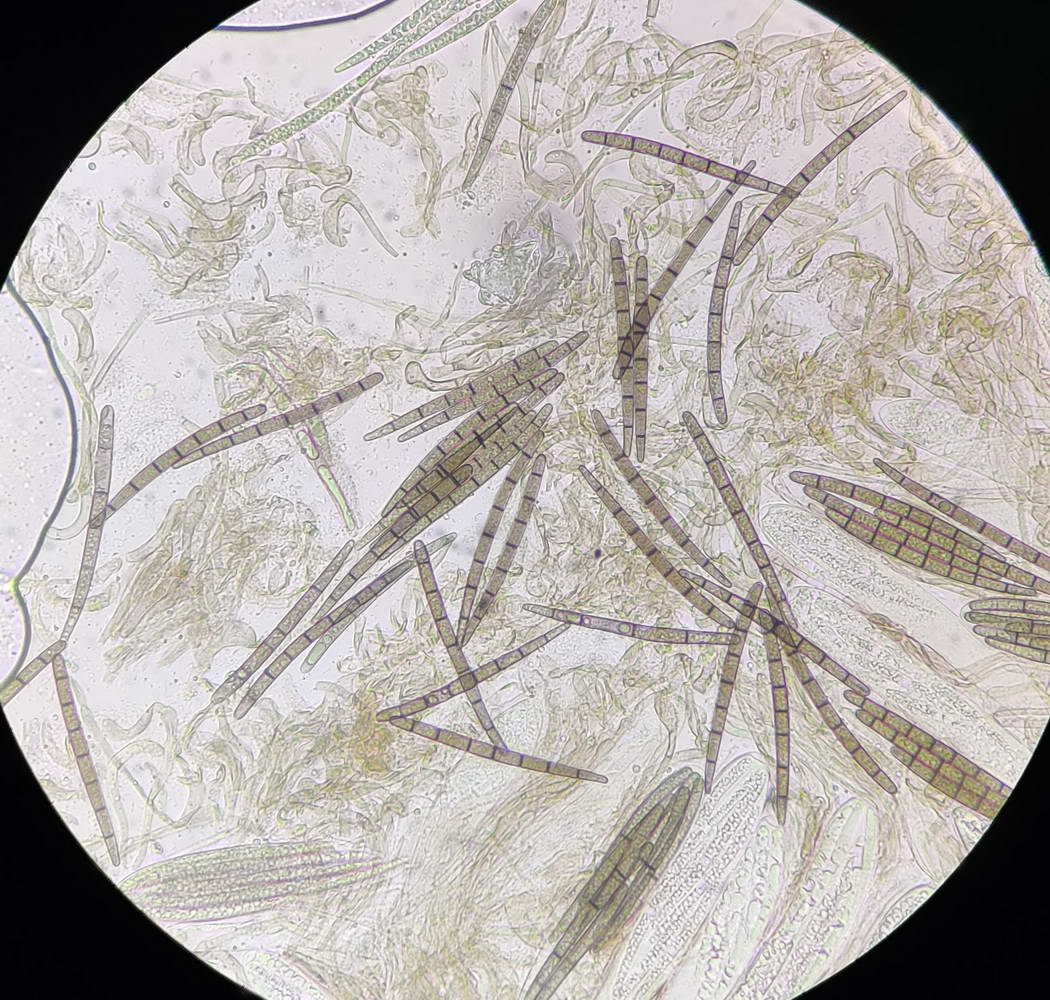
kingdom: Fungi
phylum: Ascomycota
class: Geoglossomycetes
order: Geoglossales
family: Geoglossaceae
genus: Geoglossum
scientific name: Geoglossum umbratile
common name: slank jordtunge
